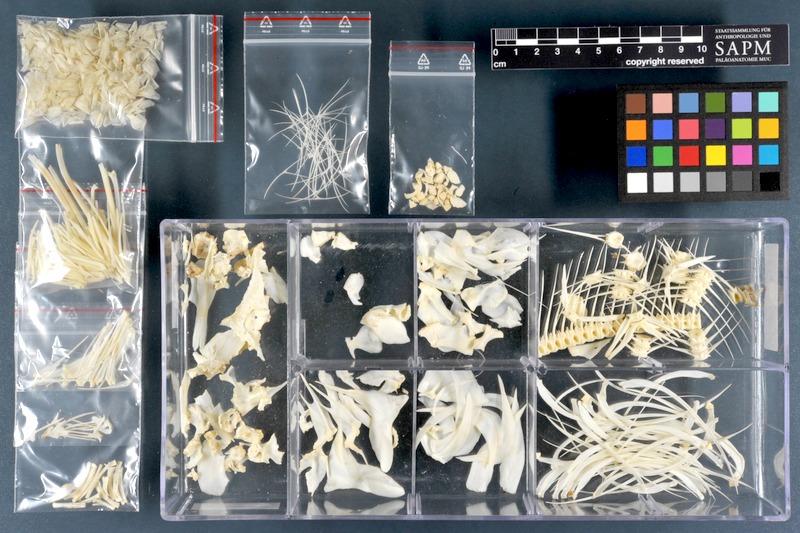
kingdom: Animalia
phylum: Chordata
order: Characiformes
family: Distichodontidae
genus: Distichodus
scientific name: Distichodus lusosso
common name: Longsnout distichodus
